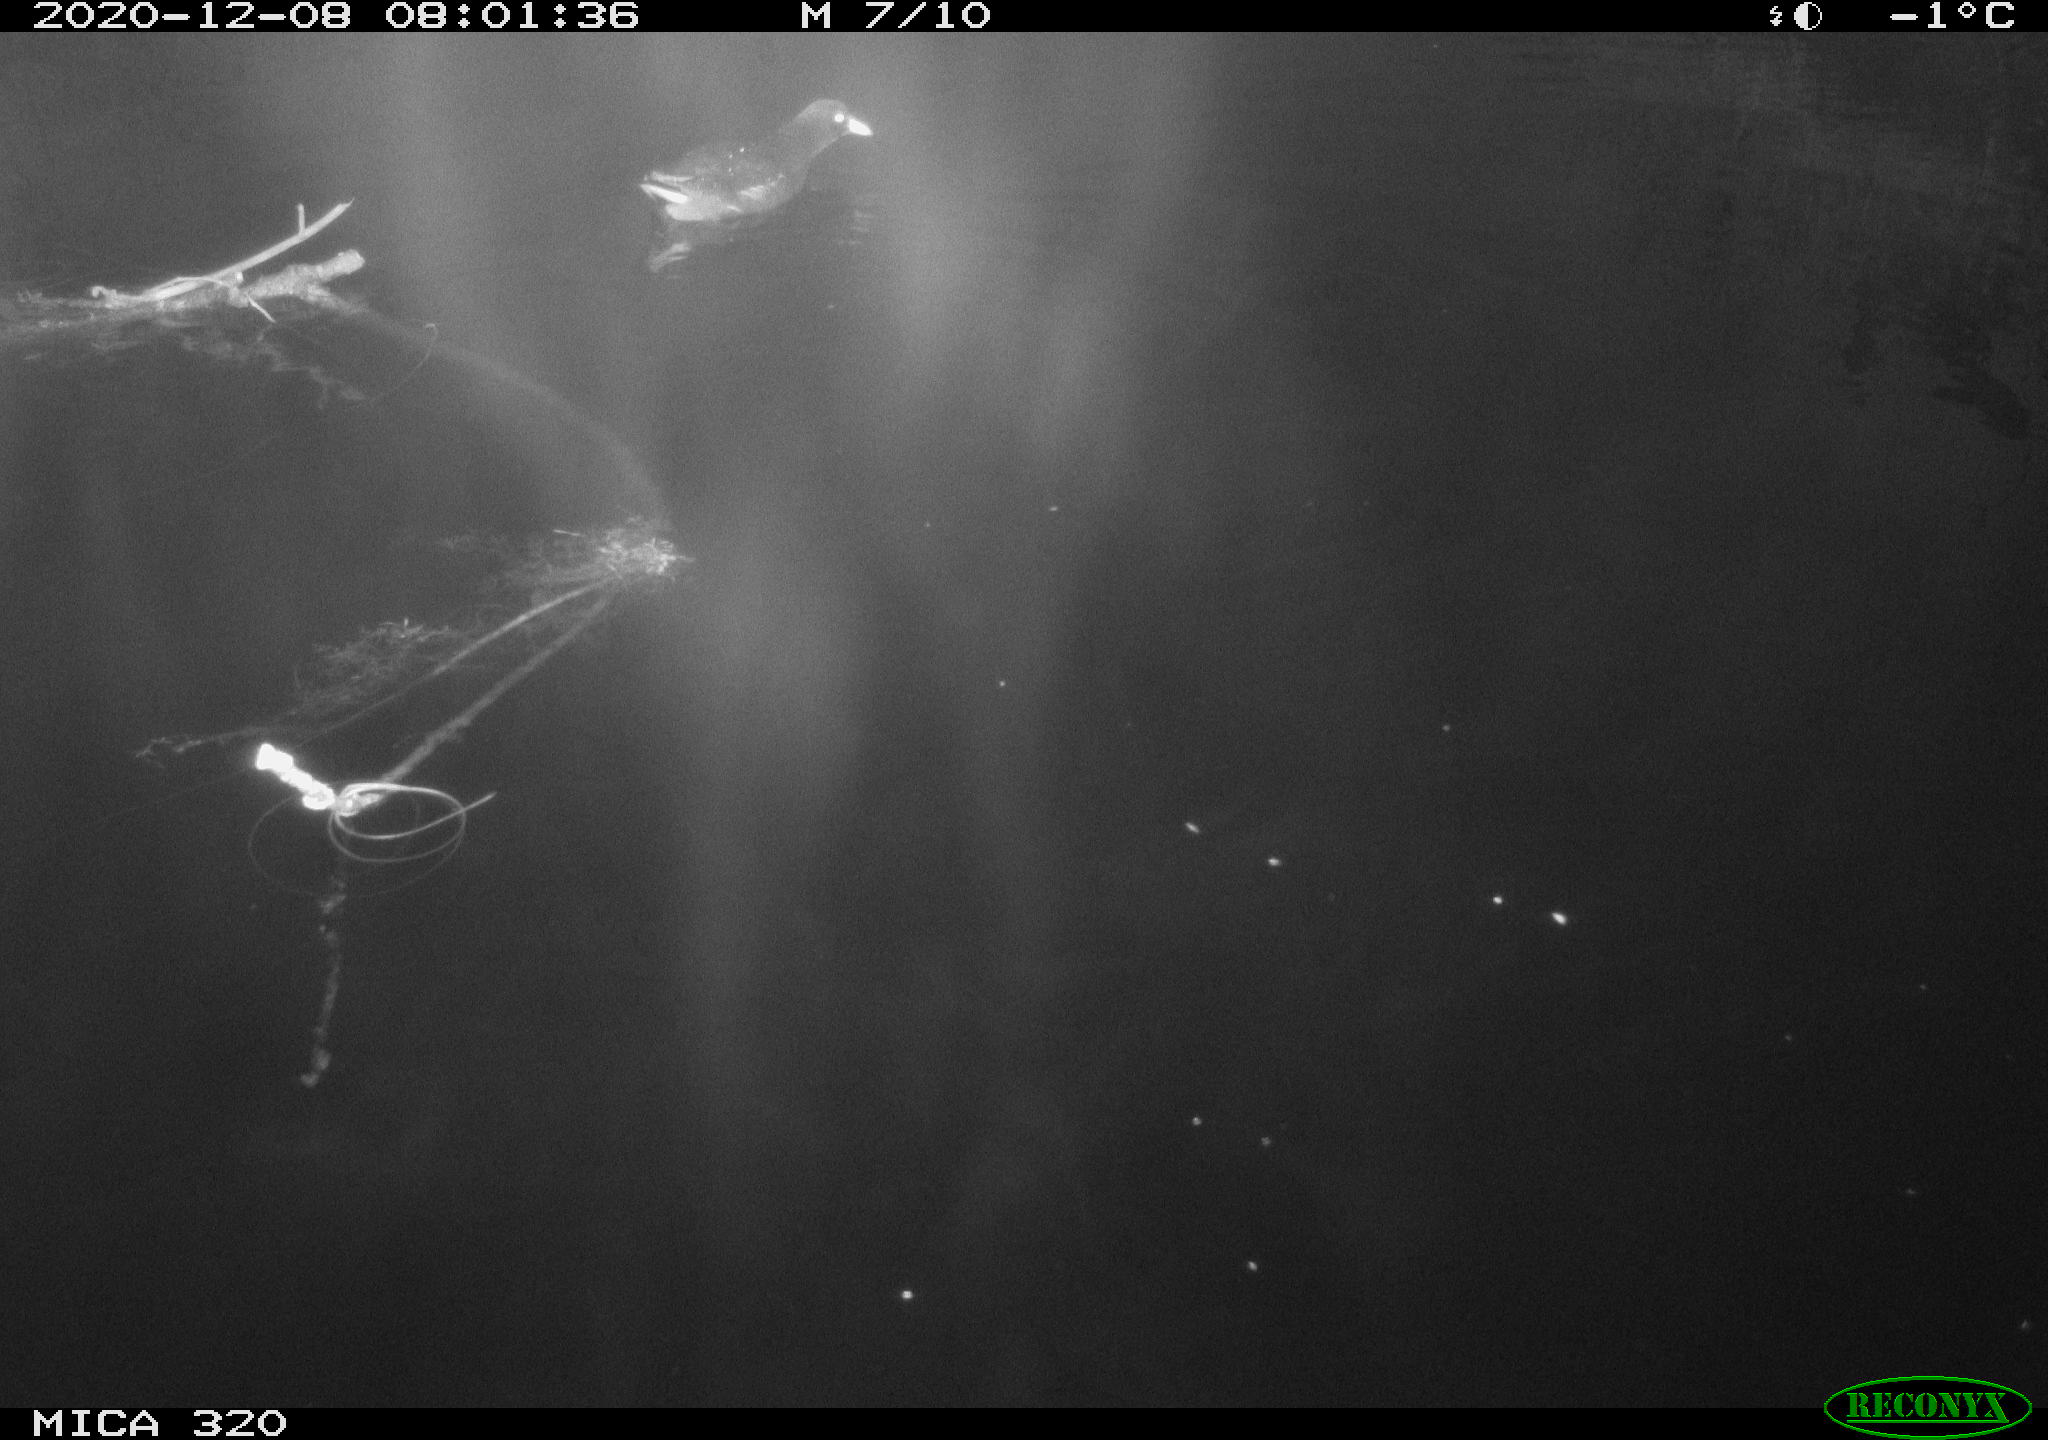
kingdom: Animalia
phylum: Chordata
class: Aves
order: Gruiformes
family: Rallidae
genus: Gallinula
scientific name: Gallinula chloropus
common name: Common moorhen
